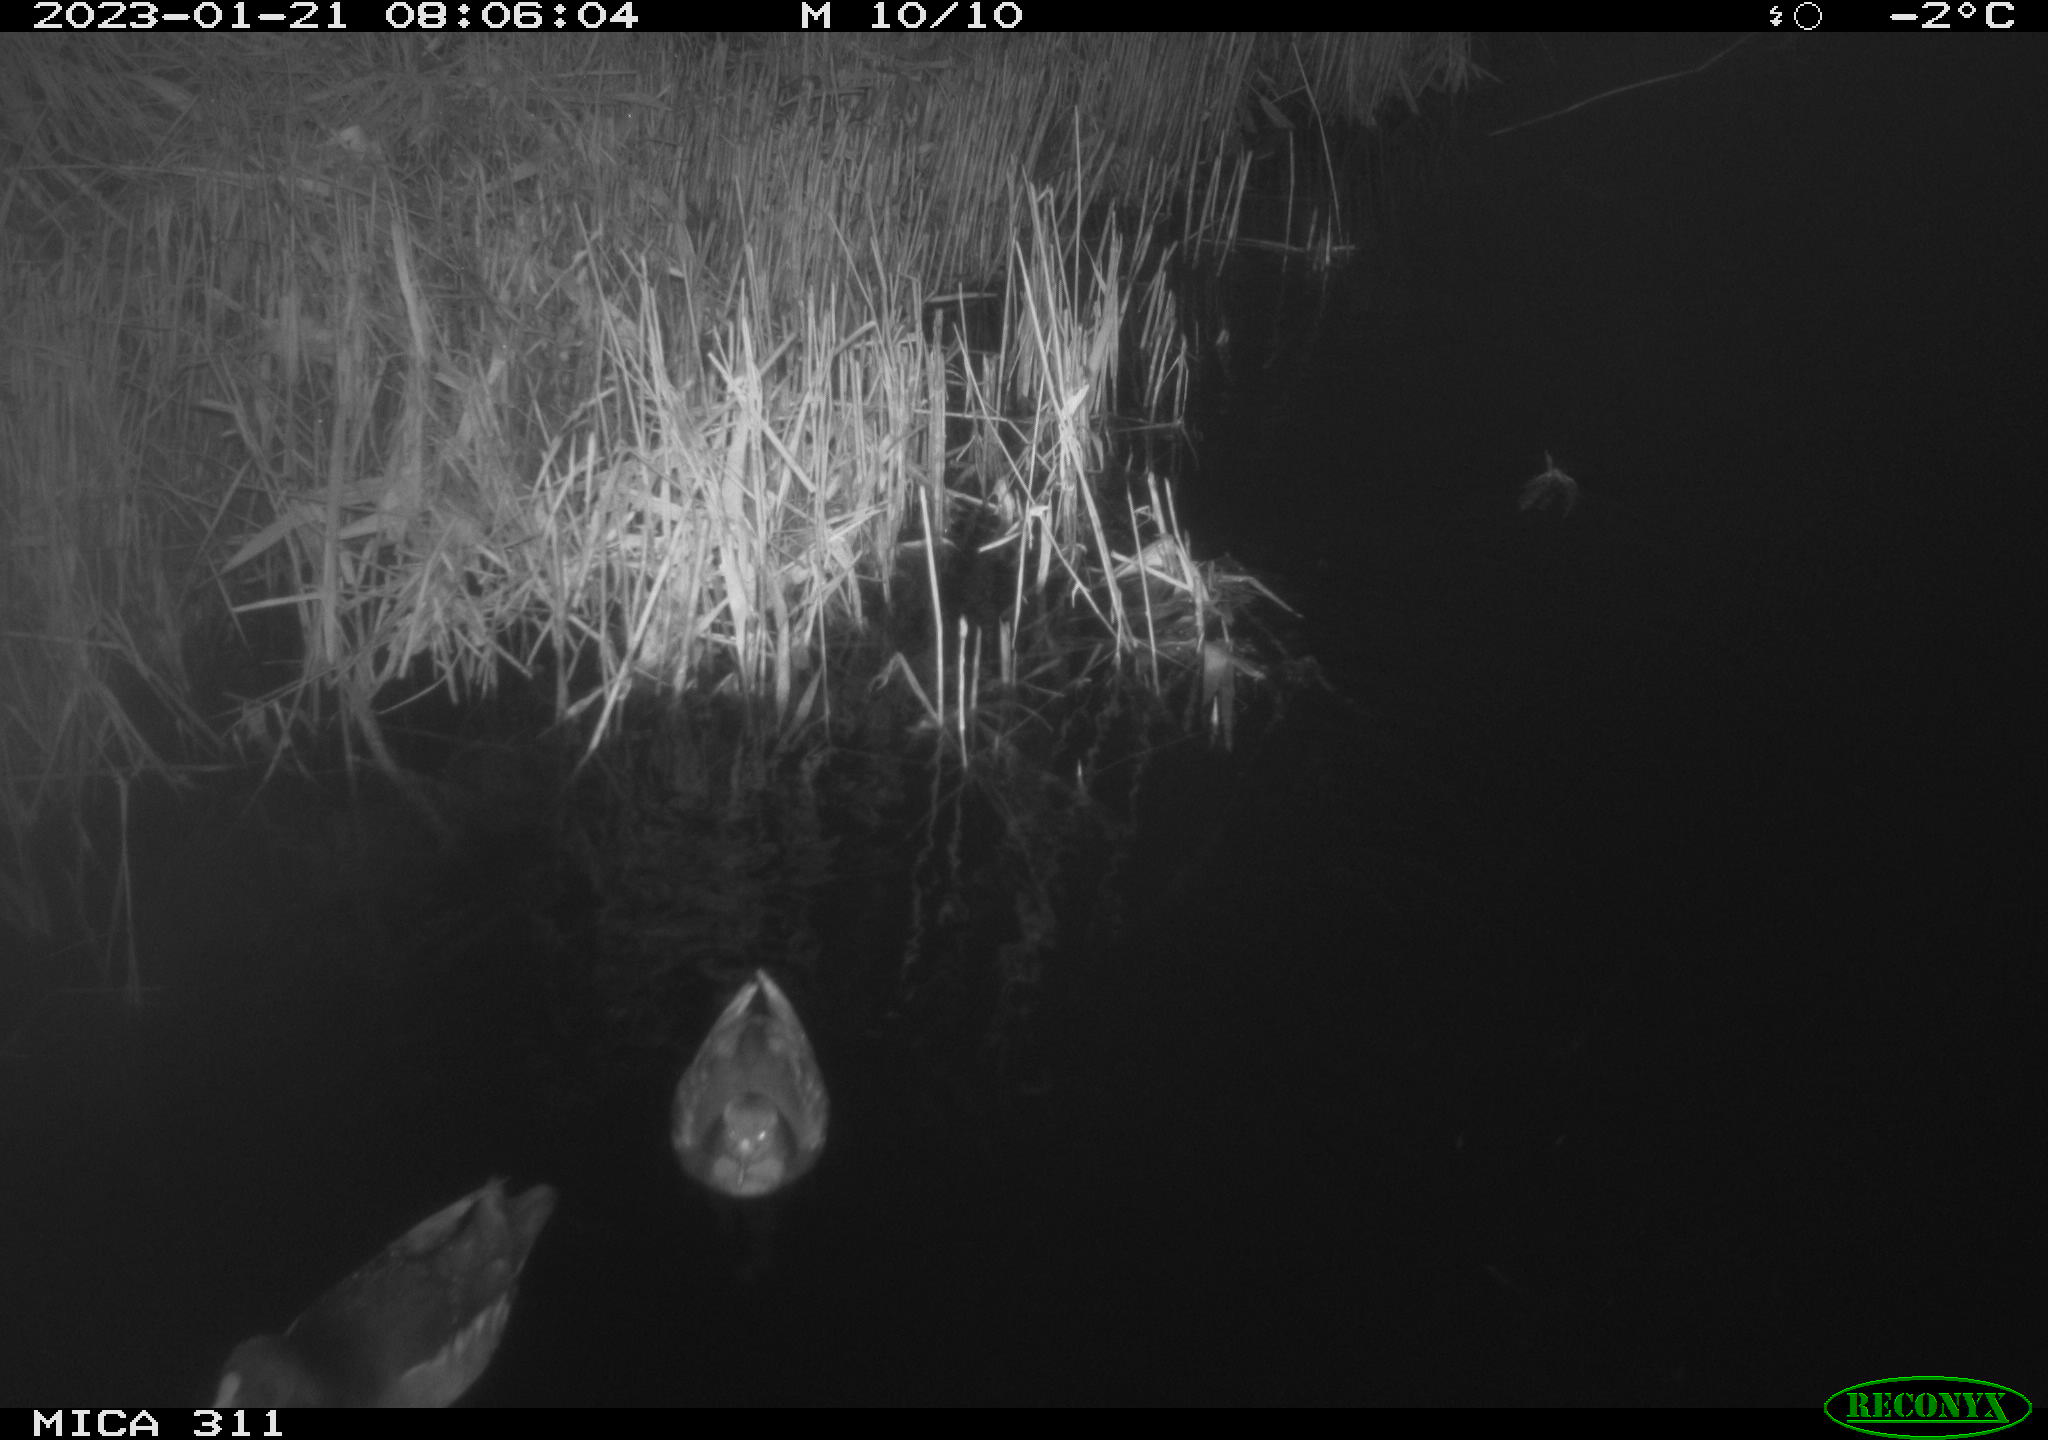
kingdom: Animalia
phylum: Chordata
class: Aves
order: Anseriformes
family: Anatidae
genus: Anas
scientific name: Anas
